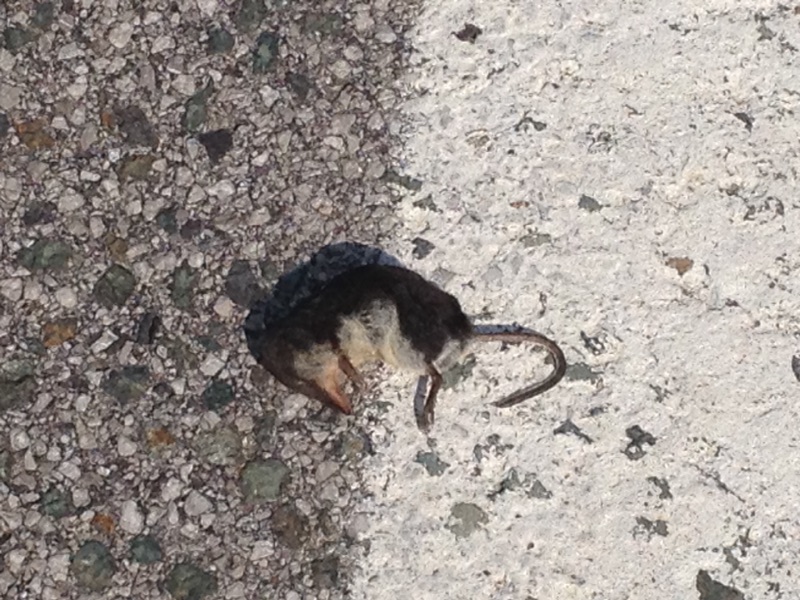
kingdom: Animalia
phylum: Chordata
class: Mammalia
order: Soricomorpha
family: Soricidae
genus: Neomys
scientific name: Neomys
